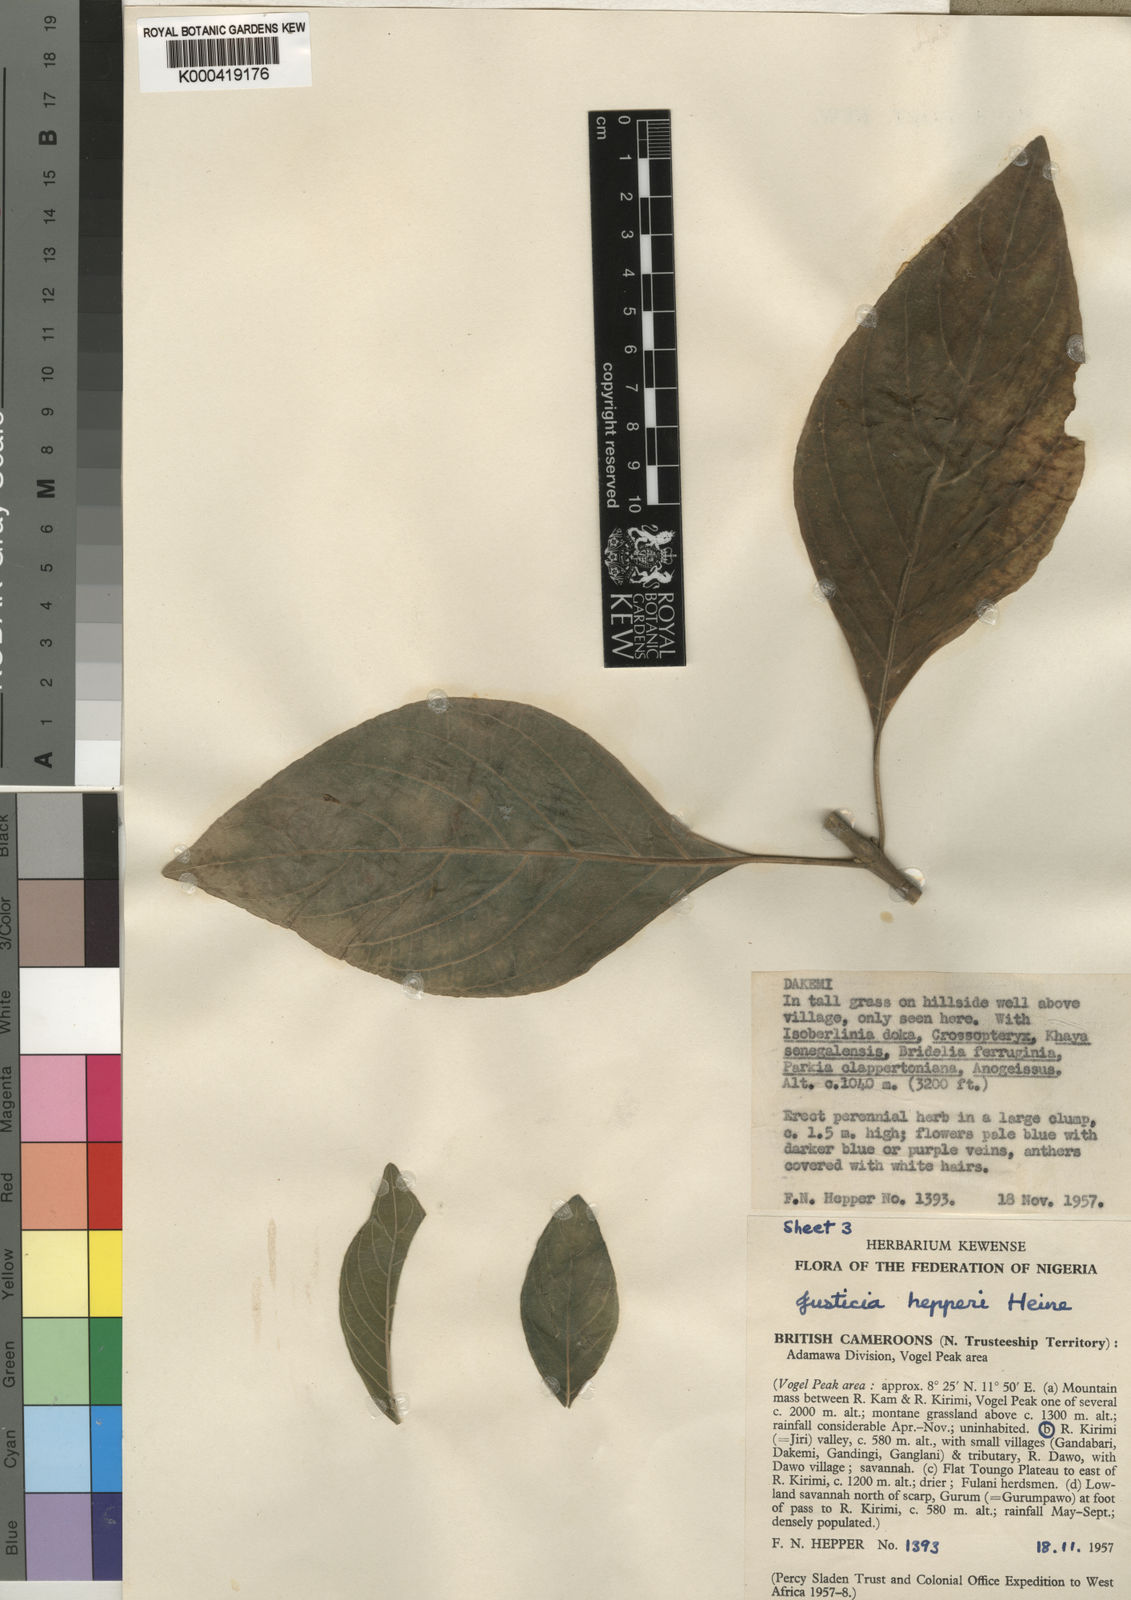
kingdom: Plantae
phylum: Tracheophyta
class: Magnoliopsida
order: Lamiales
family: Acanthaceae
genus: Justicia
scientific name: Justicia hepperi
